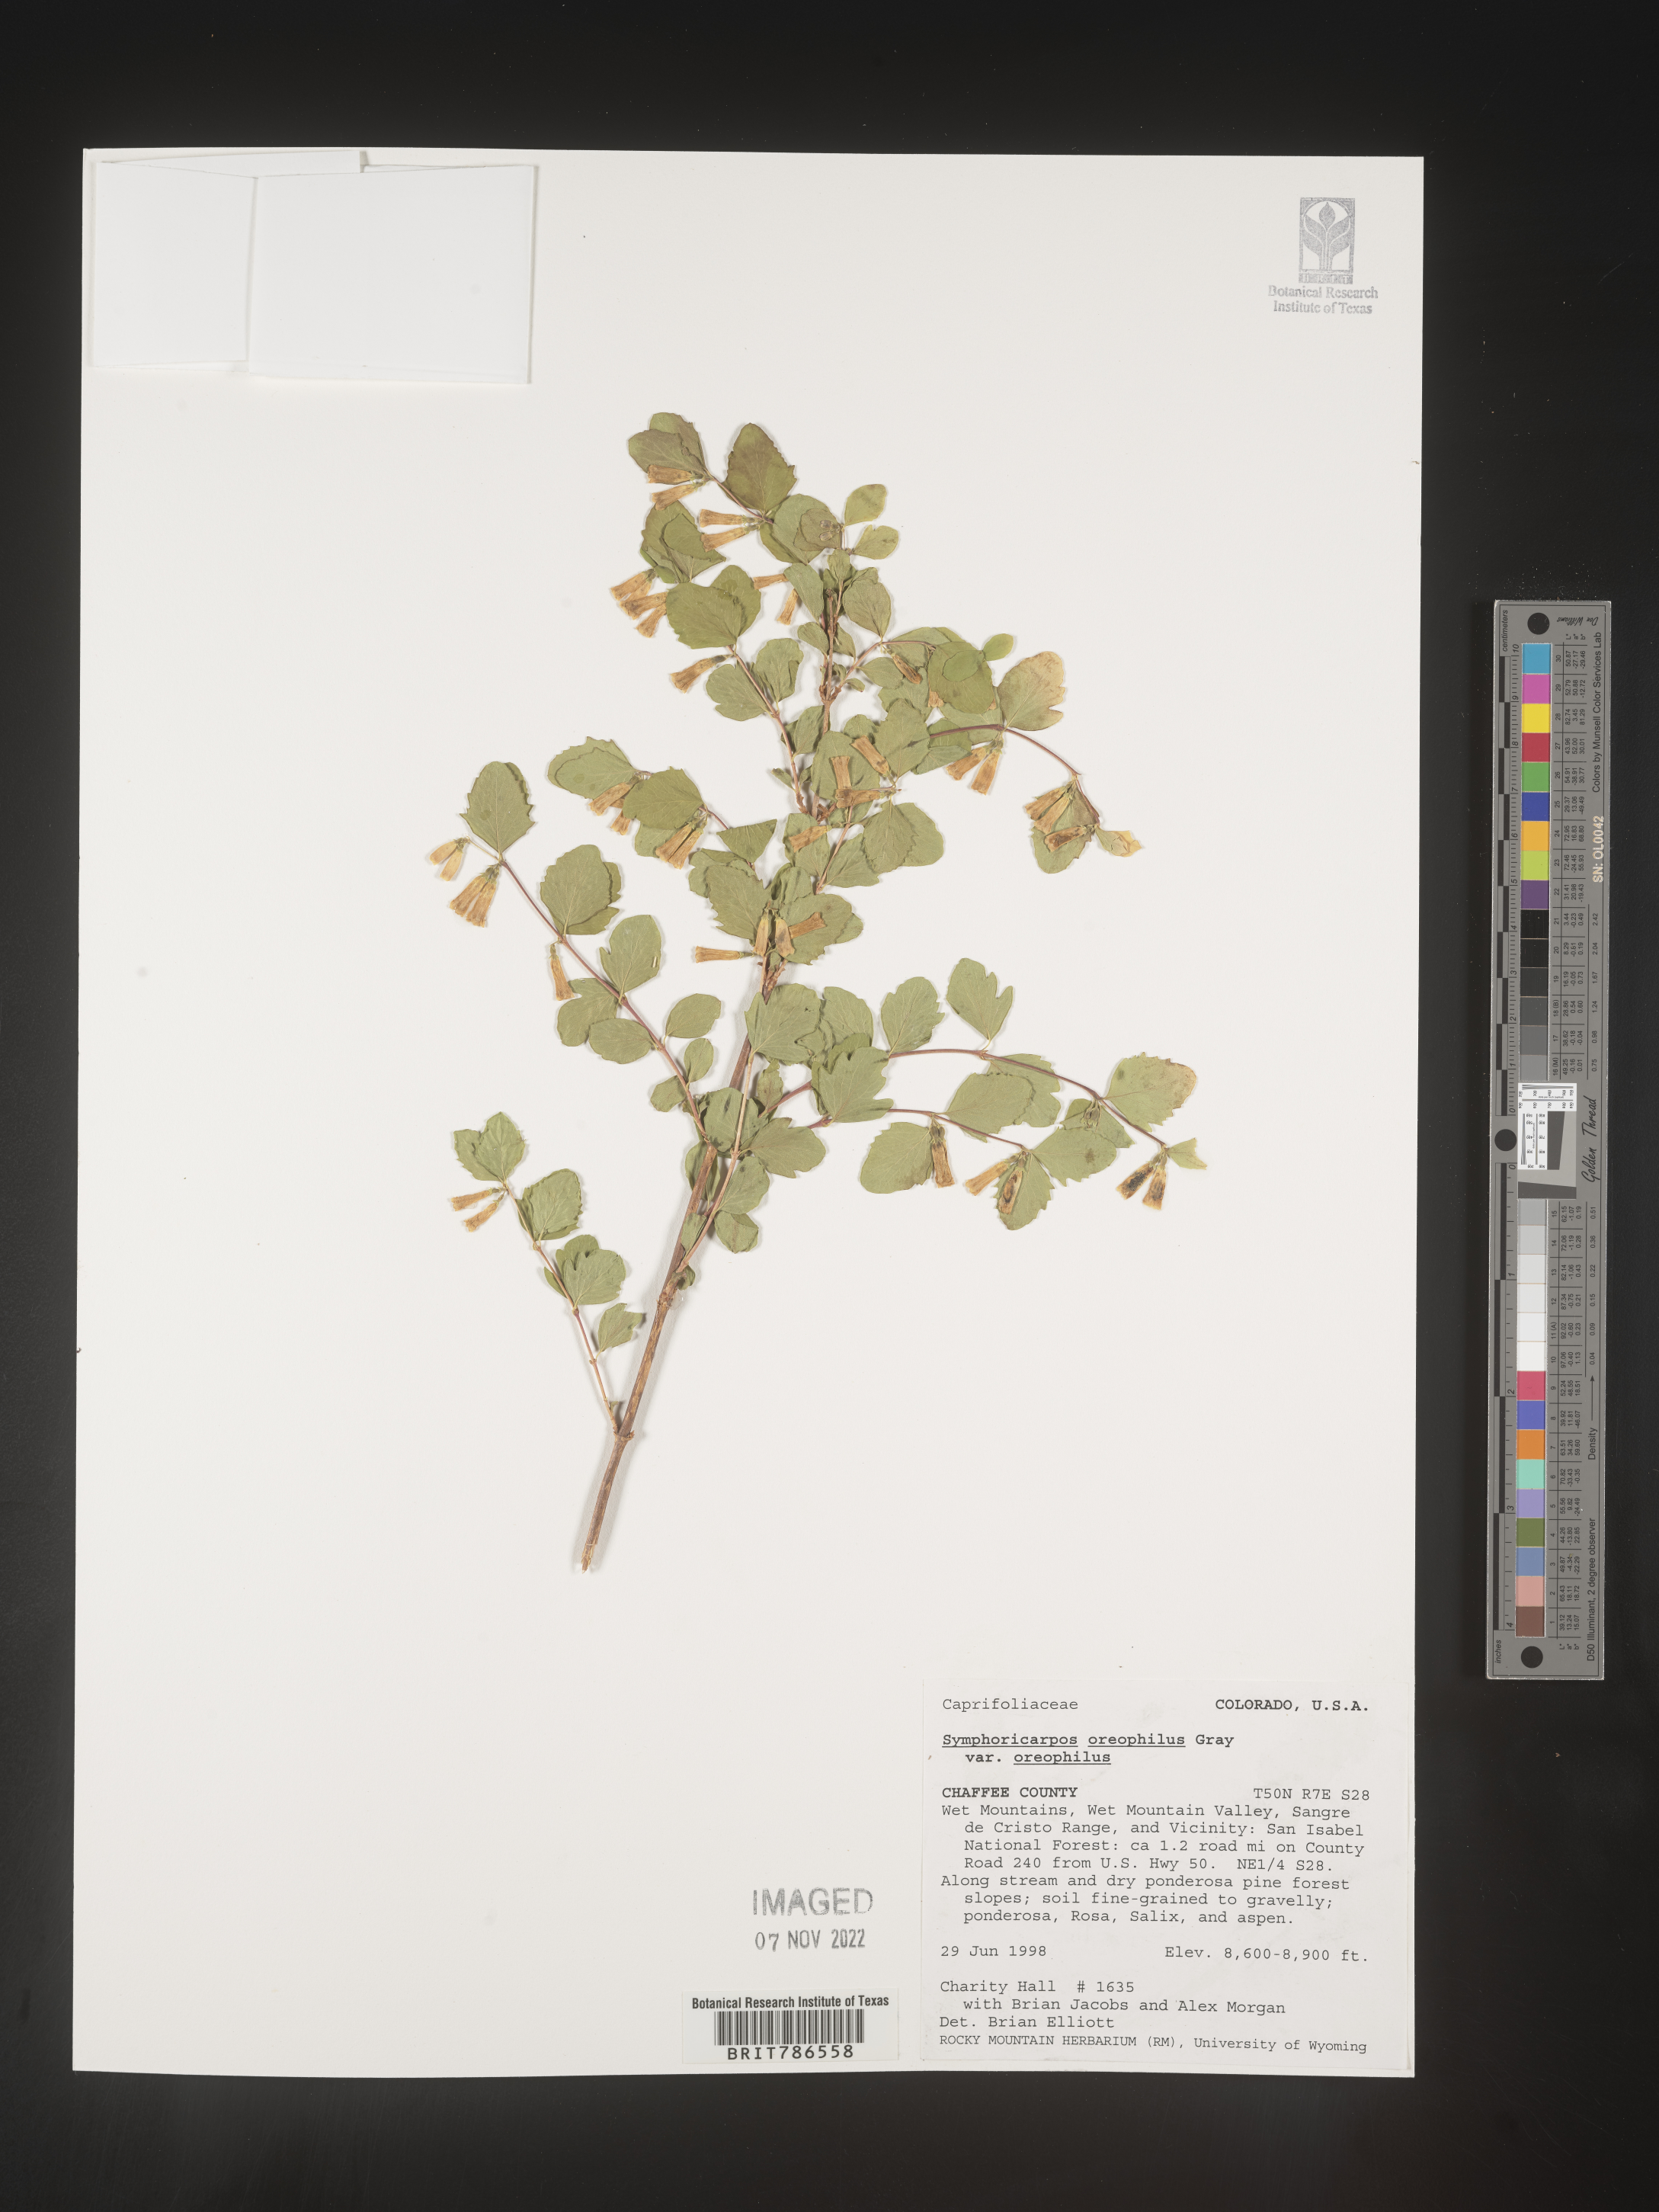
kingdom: Plantae
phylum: Tracheophyta
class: Magnoliopsida
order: Dipsacales
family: Caprifoliaceae
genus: Symphoricarpos
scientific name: Symphoricarpos oreophilus
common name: Mountain snowberry
